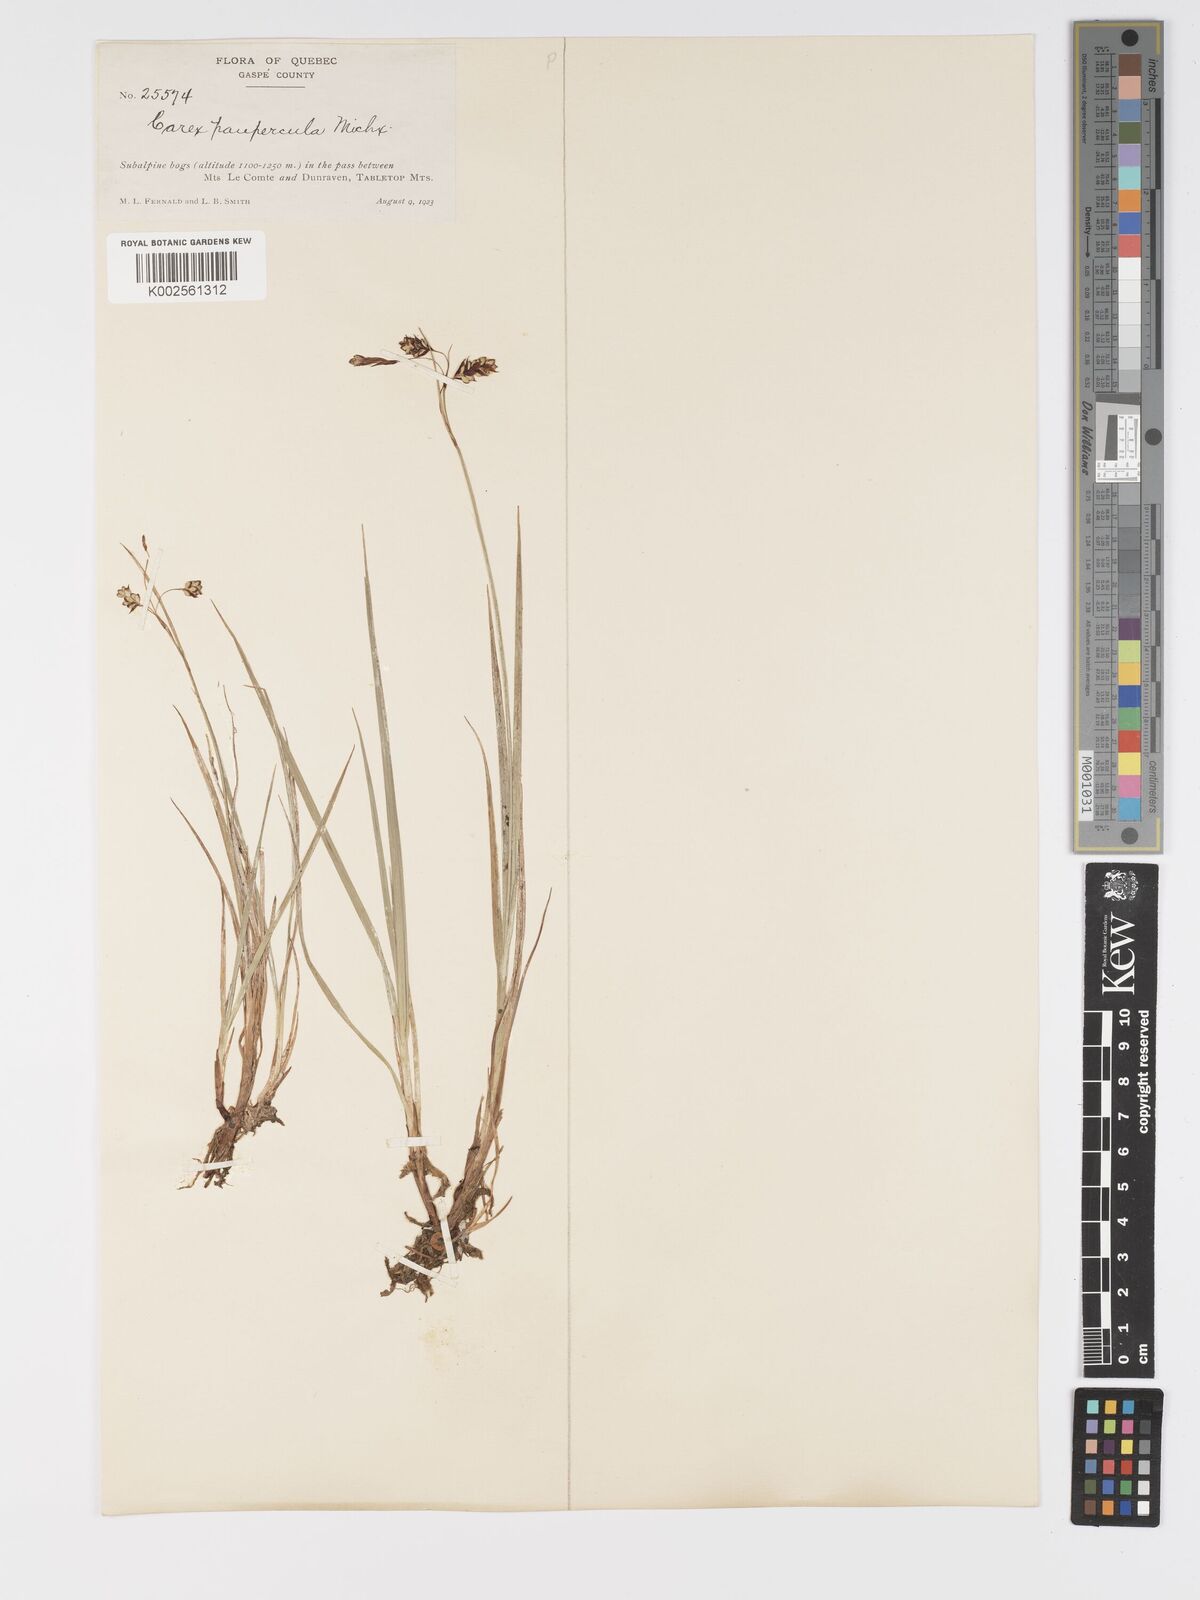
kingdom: Plantae
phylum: Tracheophyta
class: Liliopsida
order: Poales
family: Cyperaceae
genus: Carex
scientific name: Carex magellanica
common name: Bog sedge
